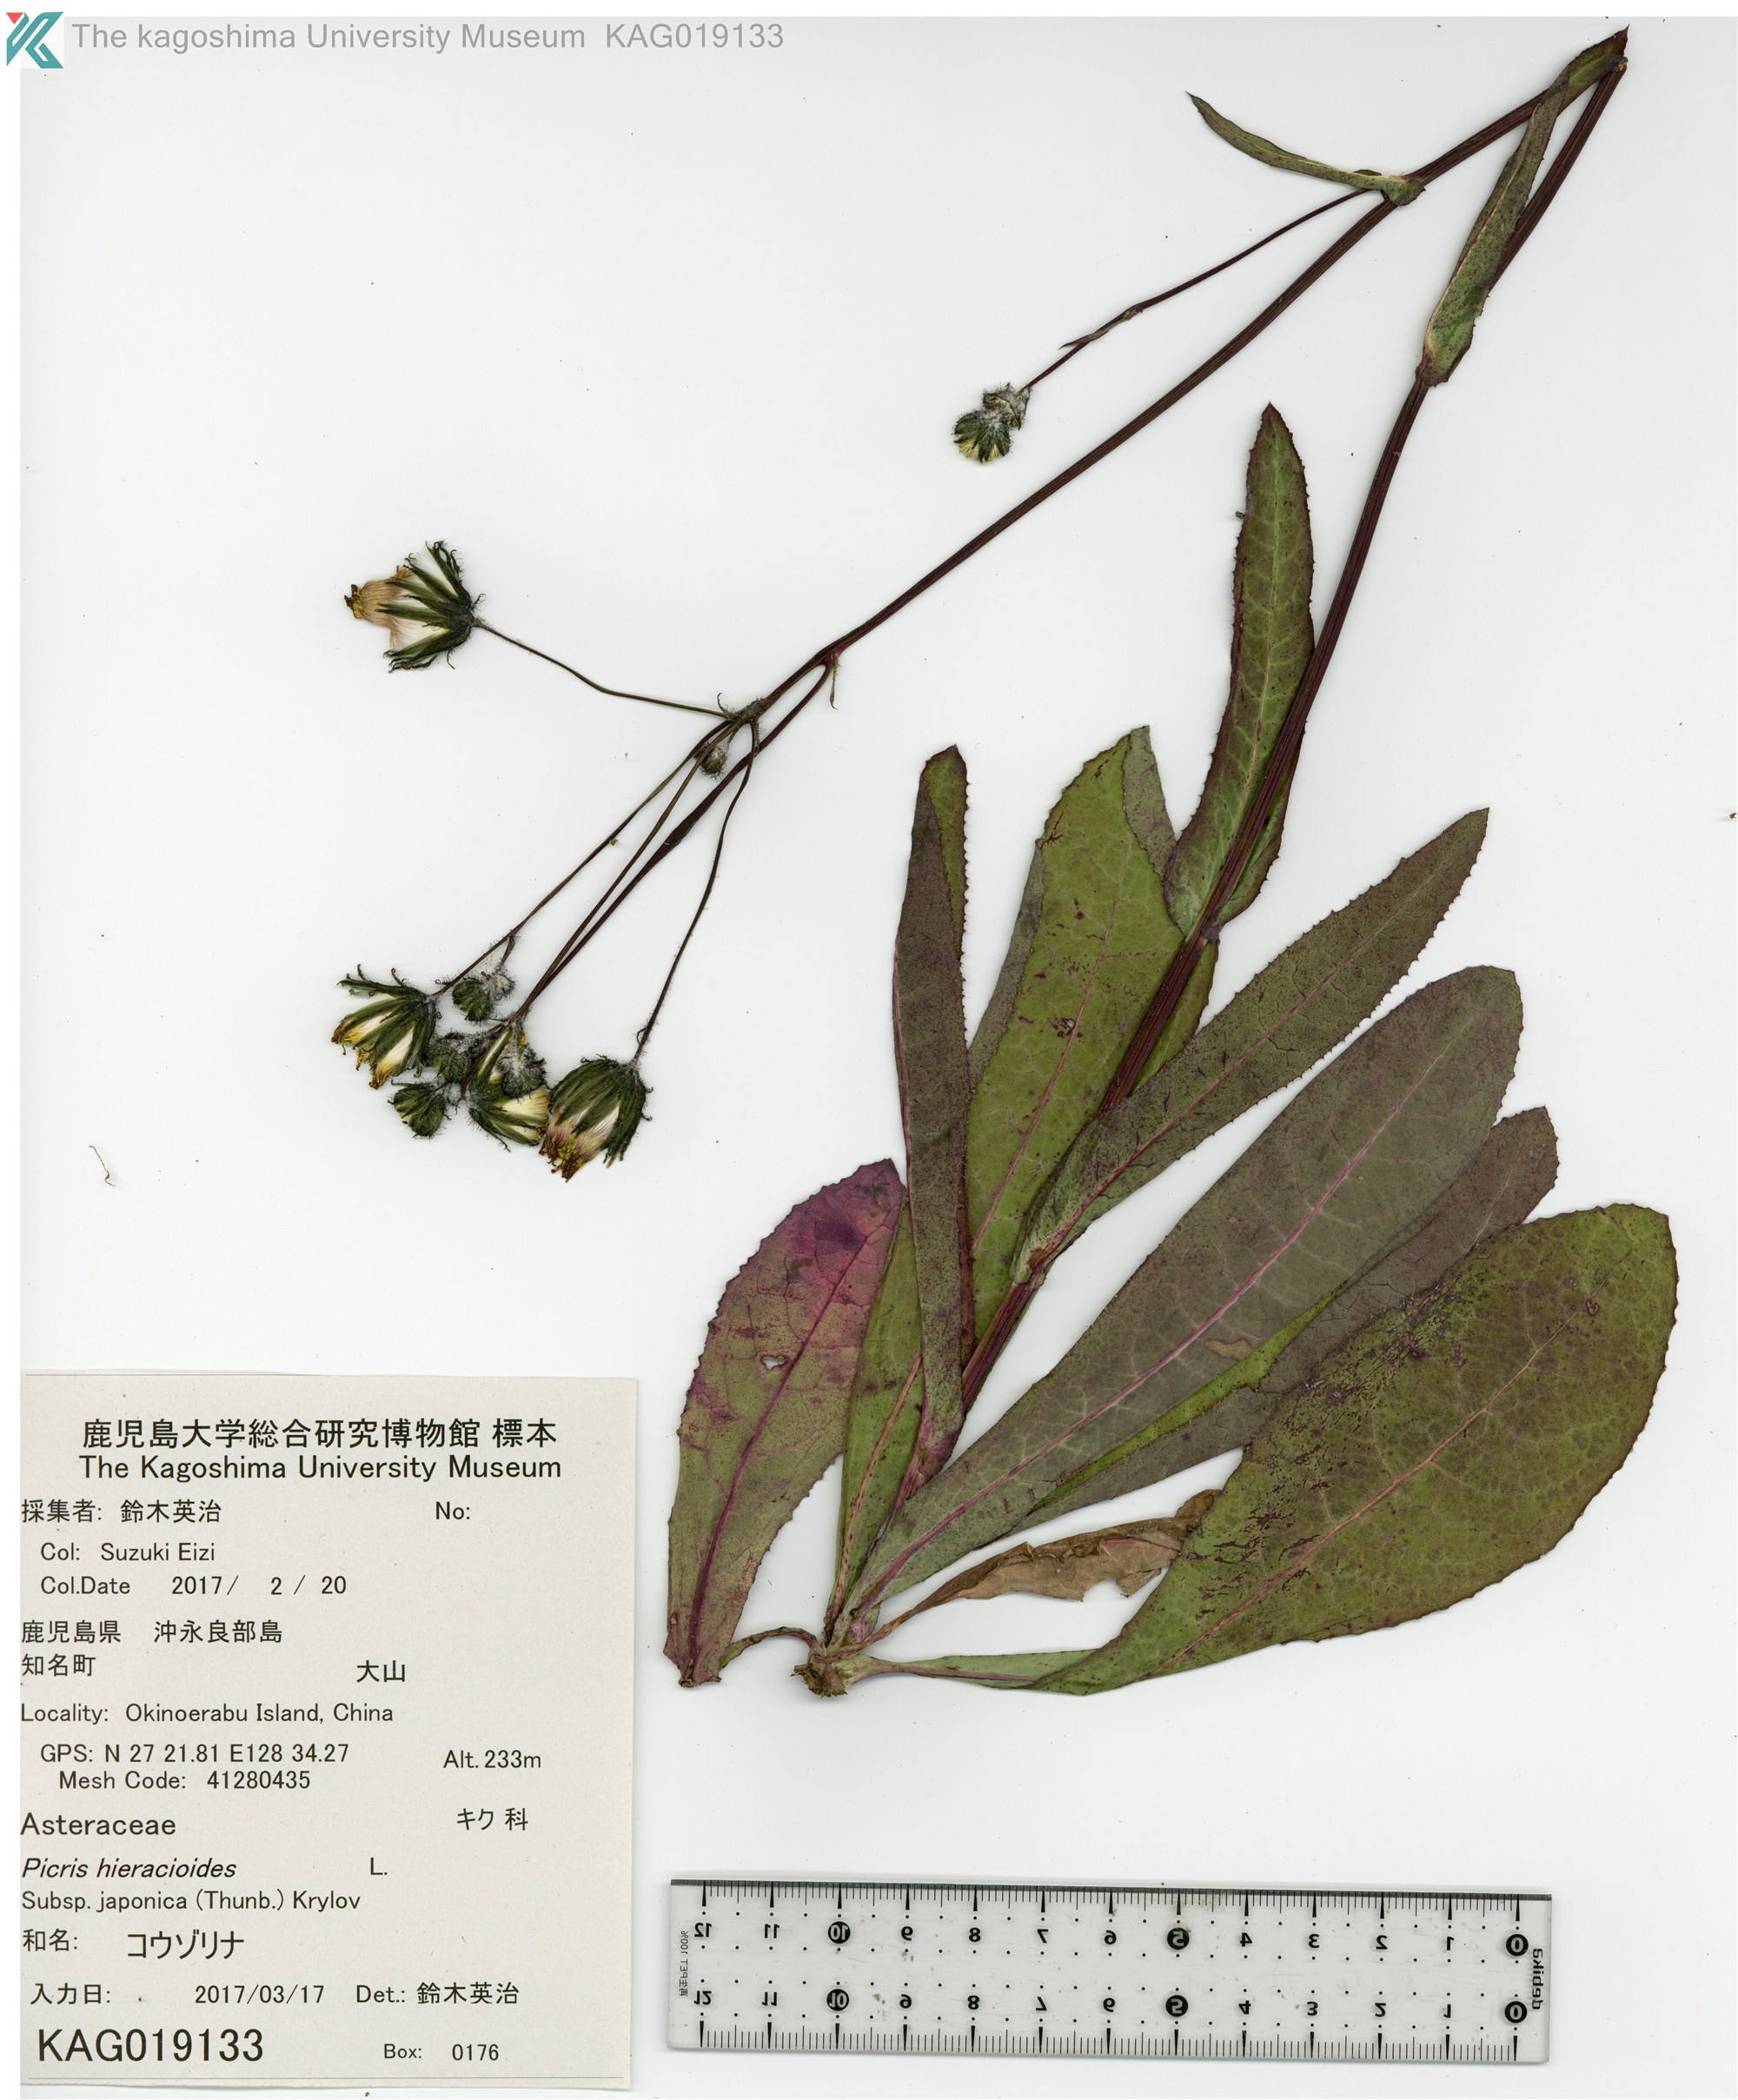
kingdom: Plantae
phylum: Tracheophyta
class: Magnoliopsida
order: Asterales
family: Asteraceae
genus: Sonchus
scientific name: Sonchus wightianus
